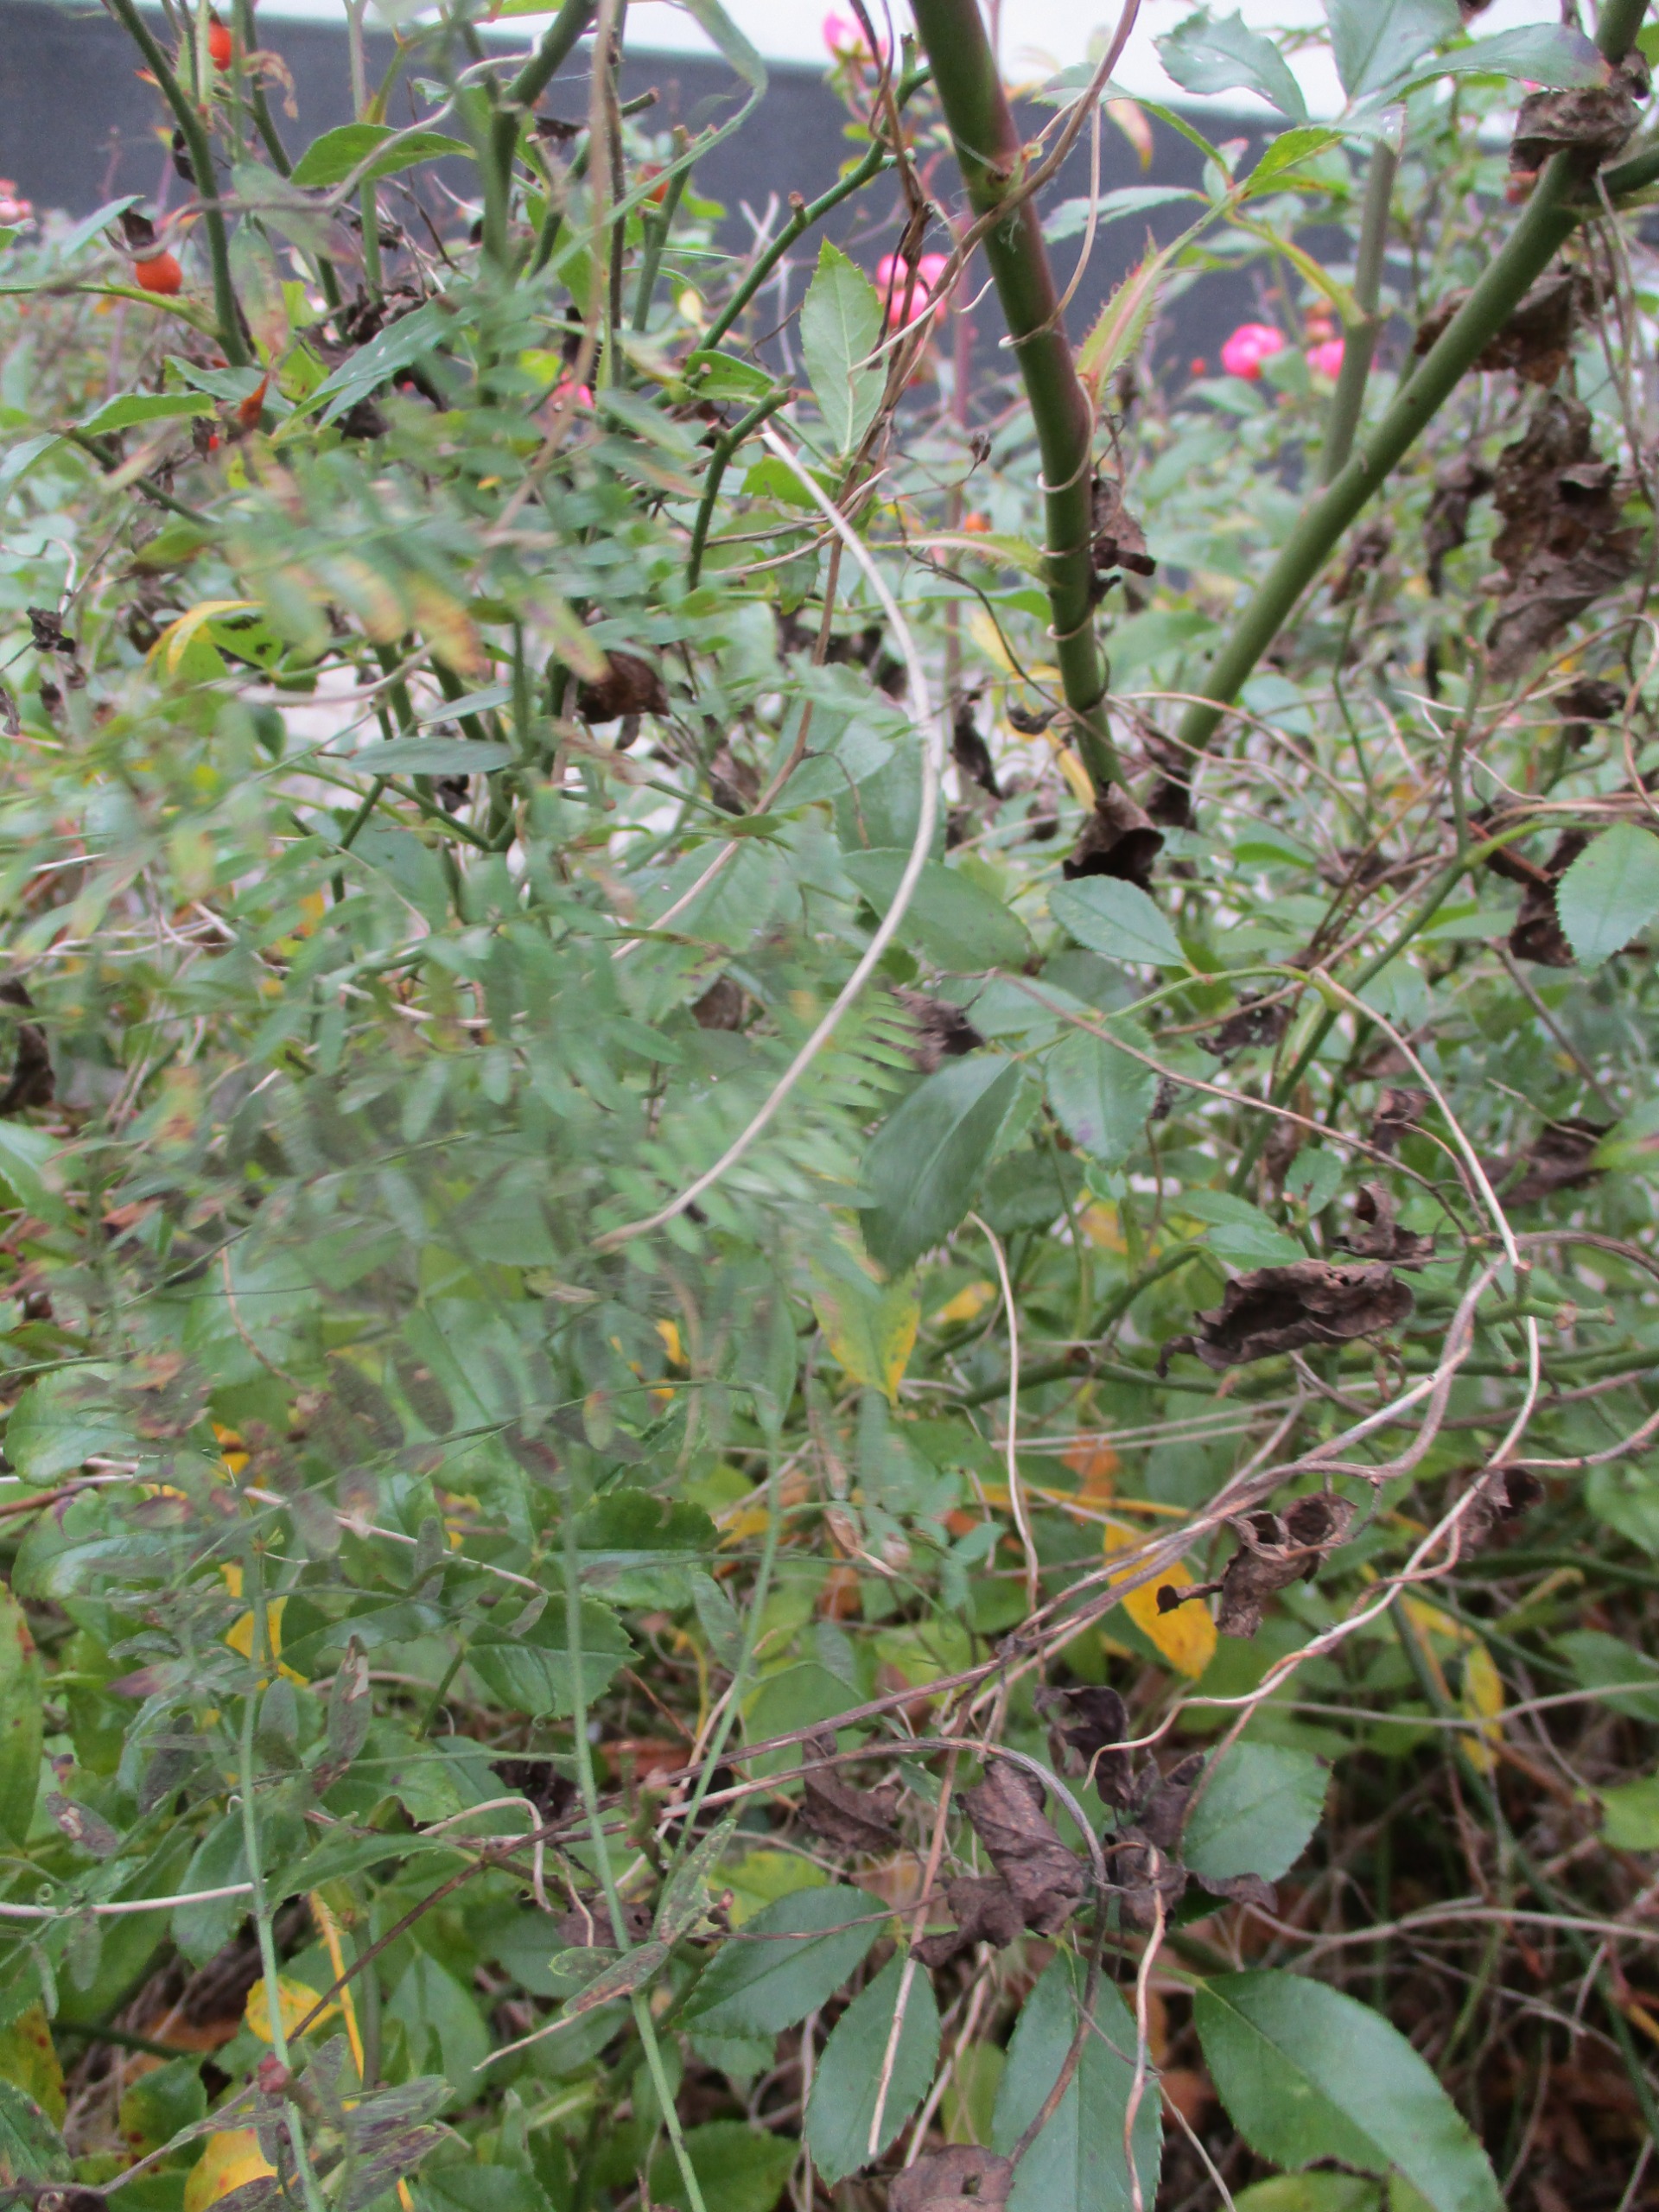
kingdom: Plantae
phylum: Tracheophyta
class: Magnoliopsida
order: Fabales
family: Fabaceae
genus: Vicia
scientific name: Vicia cracca
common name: Muse-vikke
